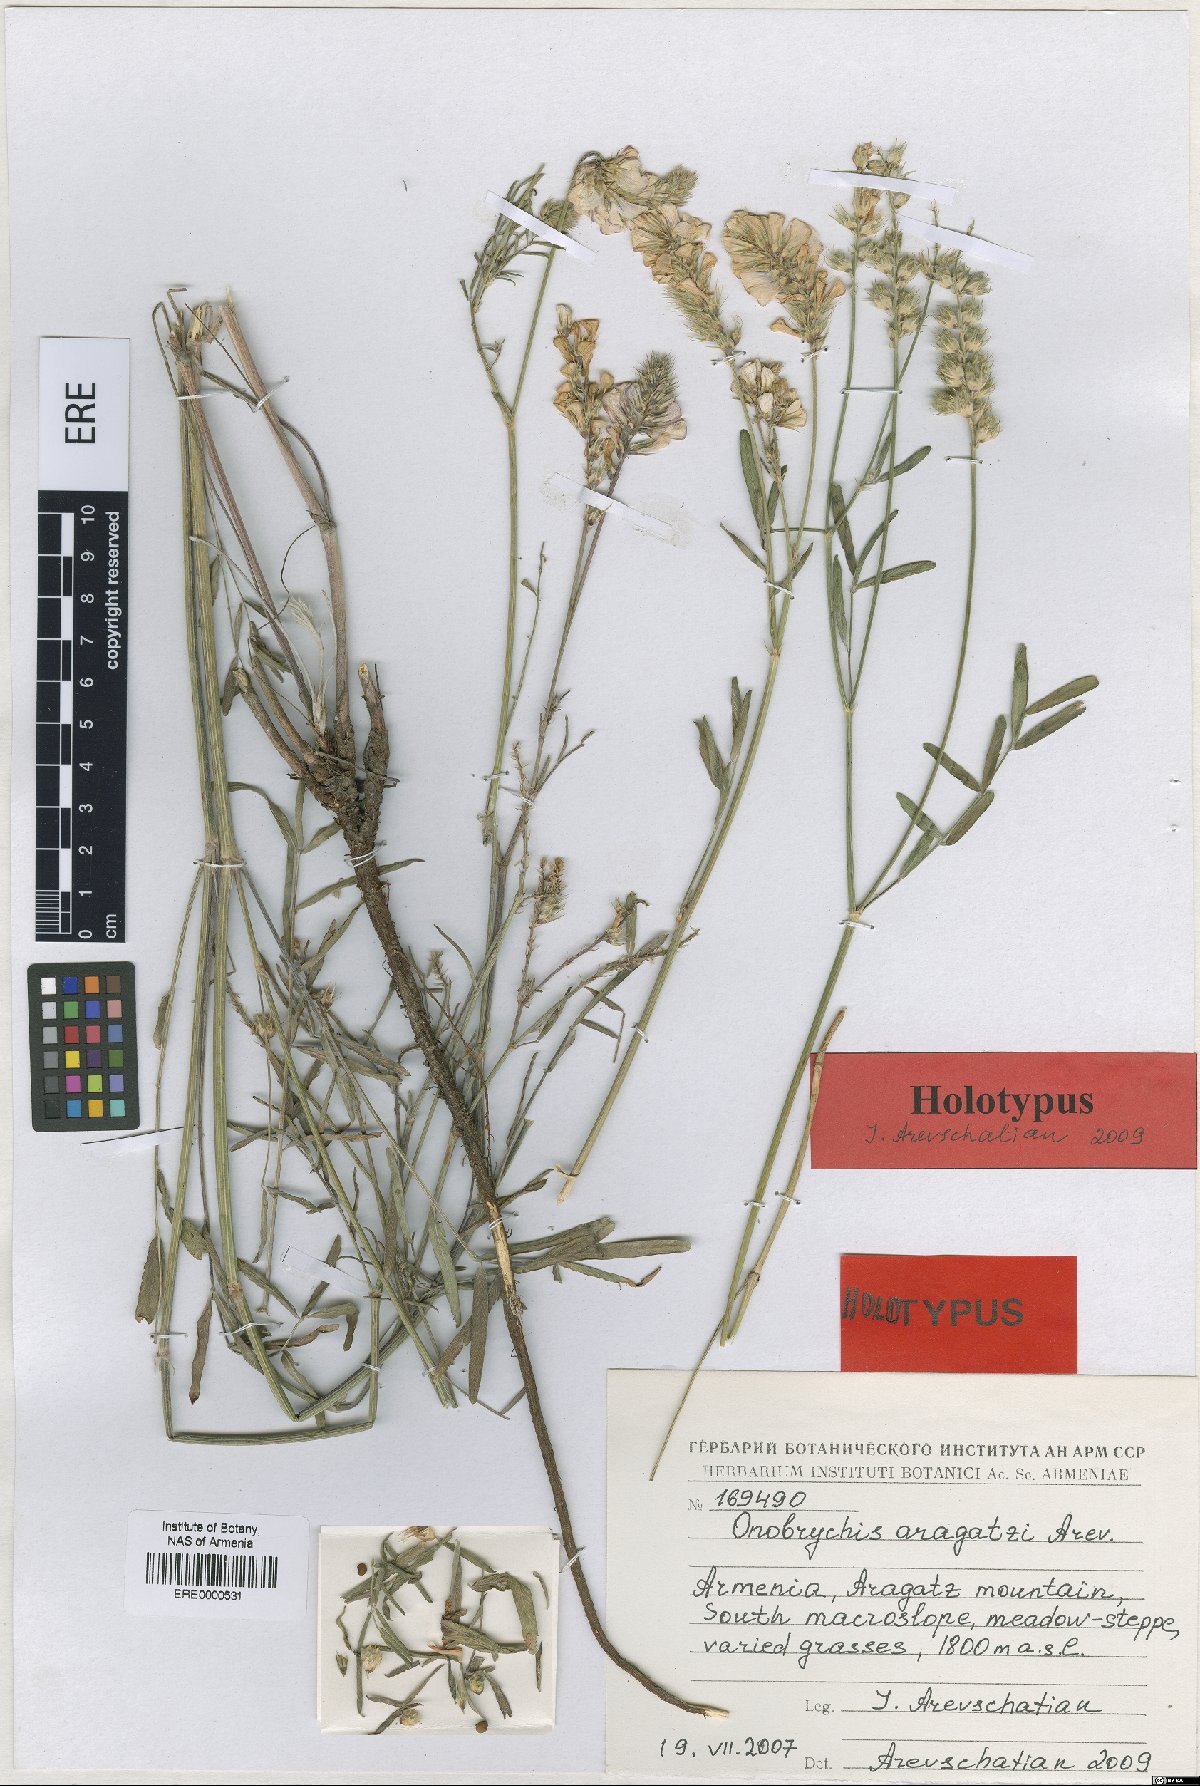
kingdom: Plantae
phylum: Tracheophyta
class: Magnoliopsida
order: Fabales
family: Fabaceae
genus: Onobrychis
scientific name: Onobrychis aragatzi
